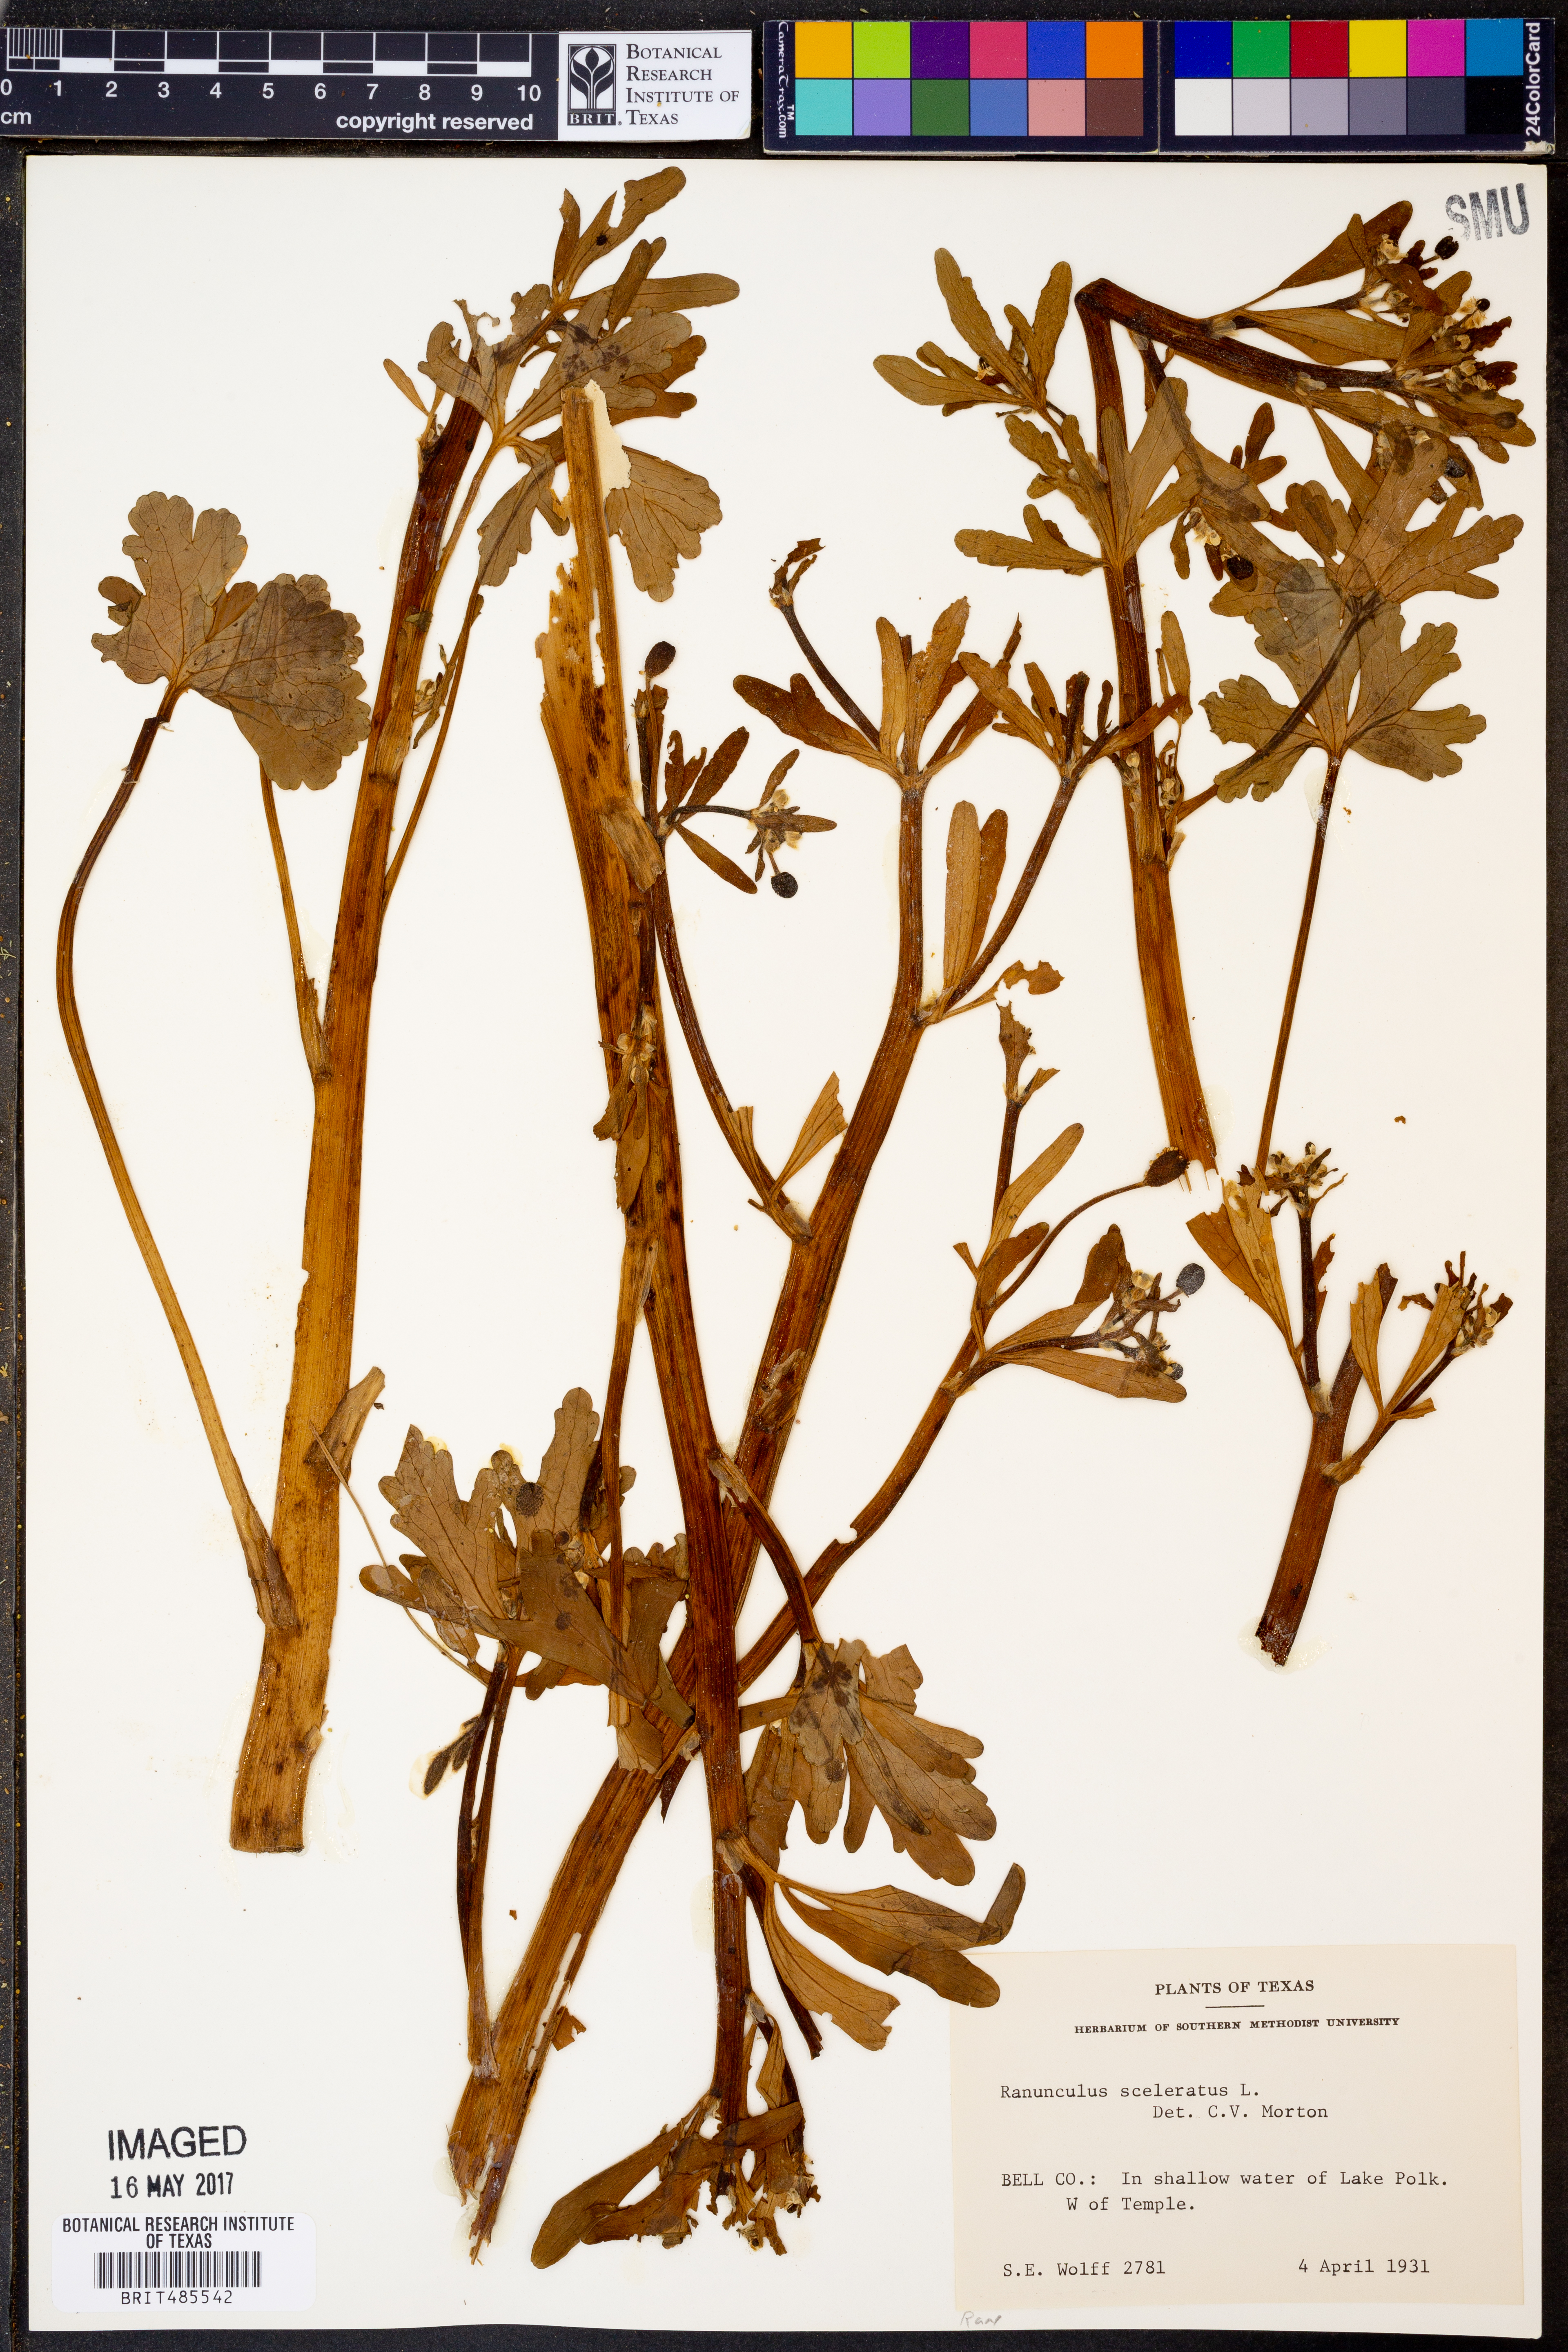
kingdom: Plantae
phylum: Tracheophyta
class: Magnoliopsida
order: Ranunculales
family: Ranunculaceae
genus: Ranunculus
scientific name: Ranunculus sceleratus
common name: Celery-leaved buttercup
